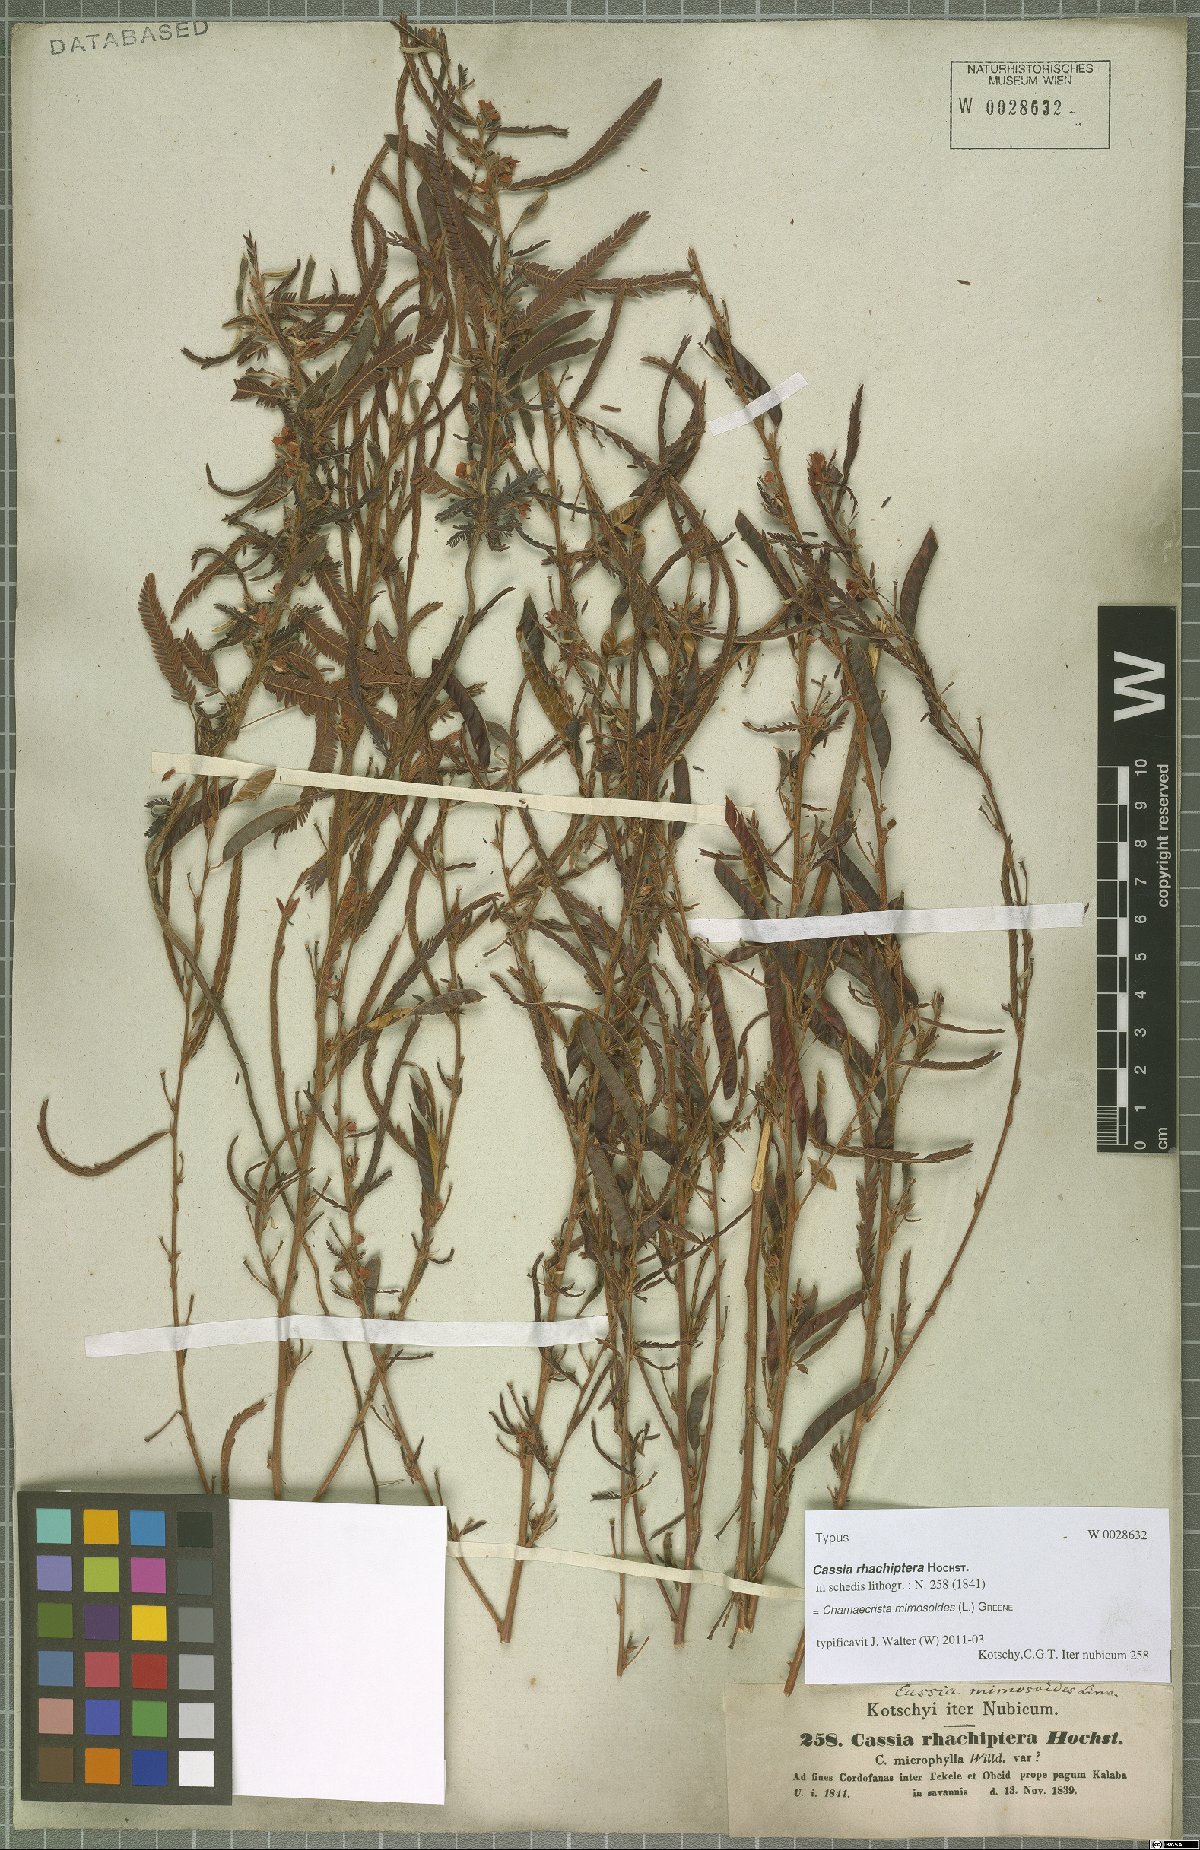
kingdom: Plantae
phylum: Tracheophyta
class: Magnoliopsida
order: Fabales
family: Fabaceae
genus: Chamaecrista
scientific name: Chamaecrista mimosoides
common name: Fish-bone cassia
